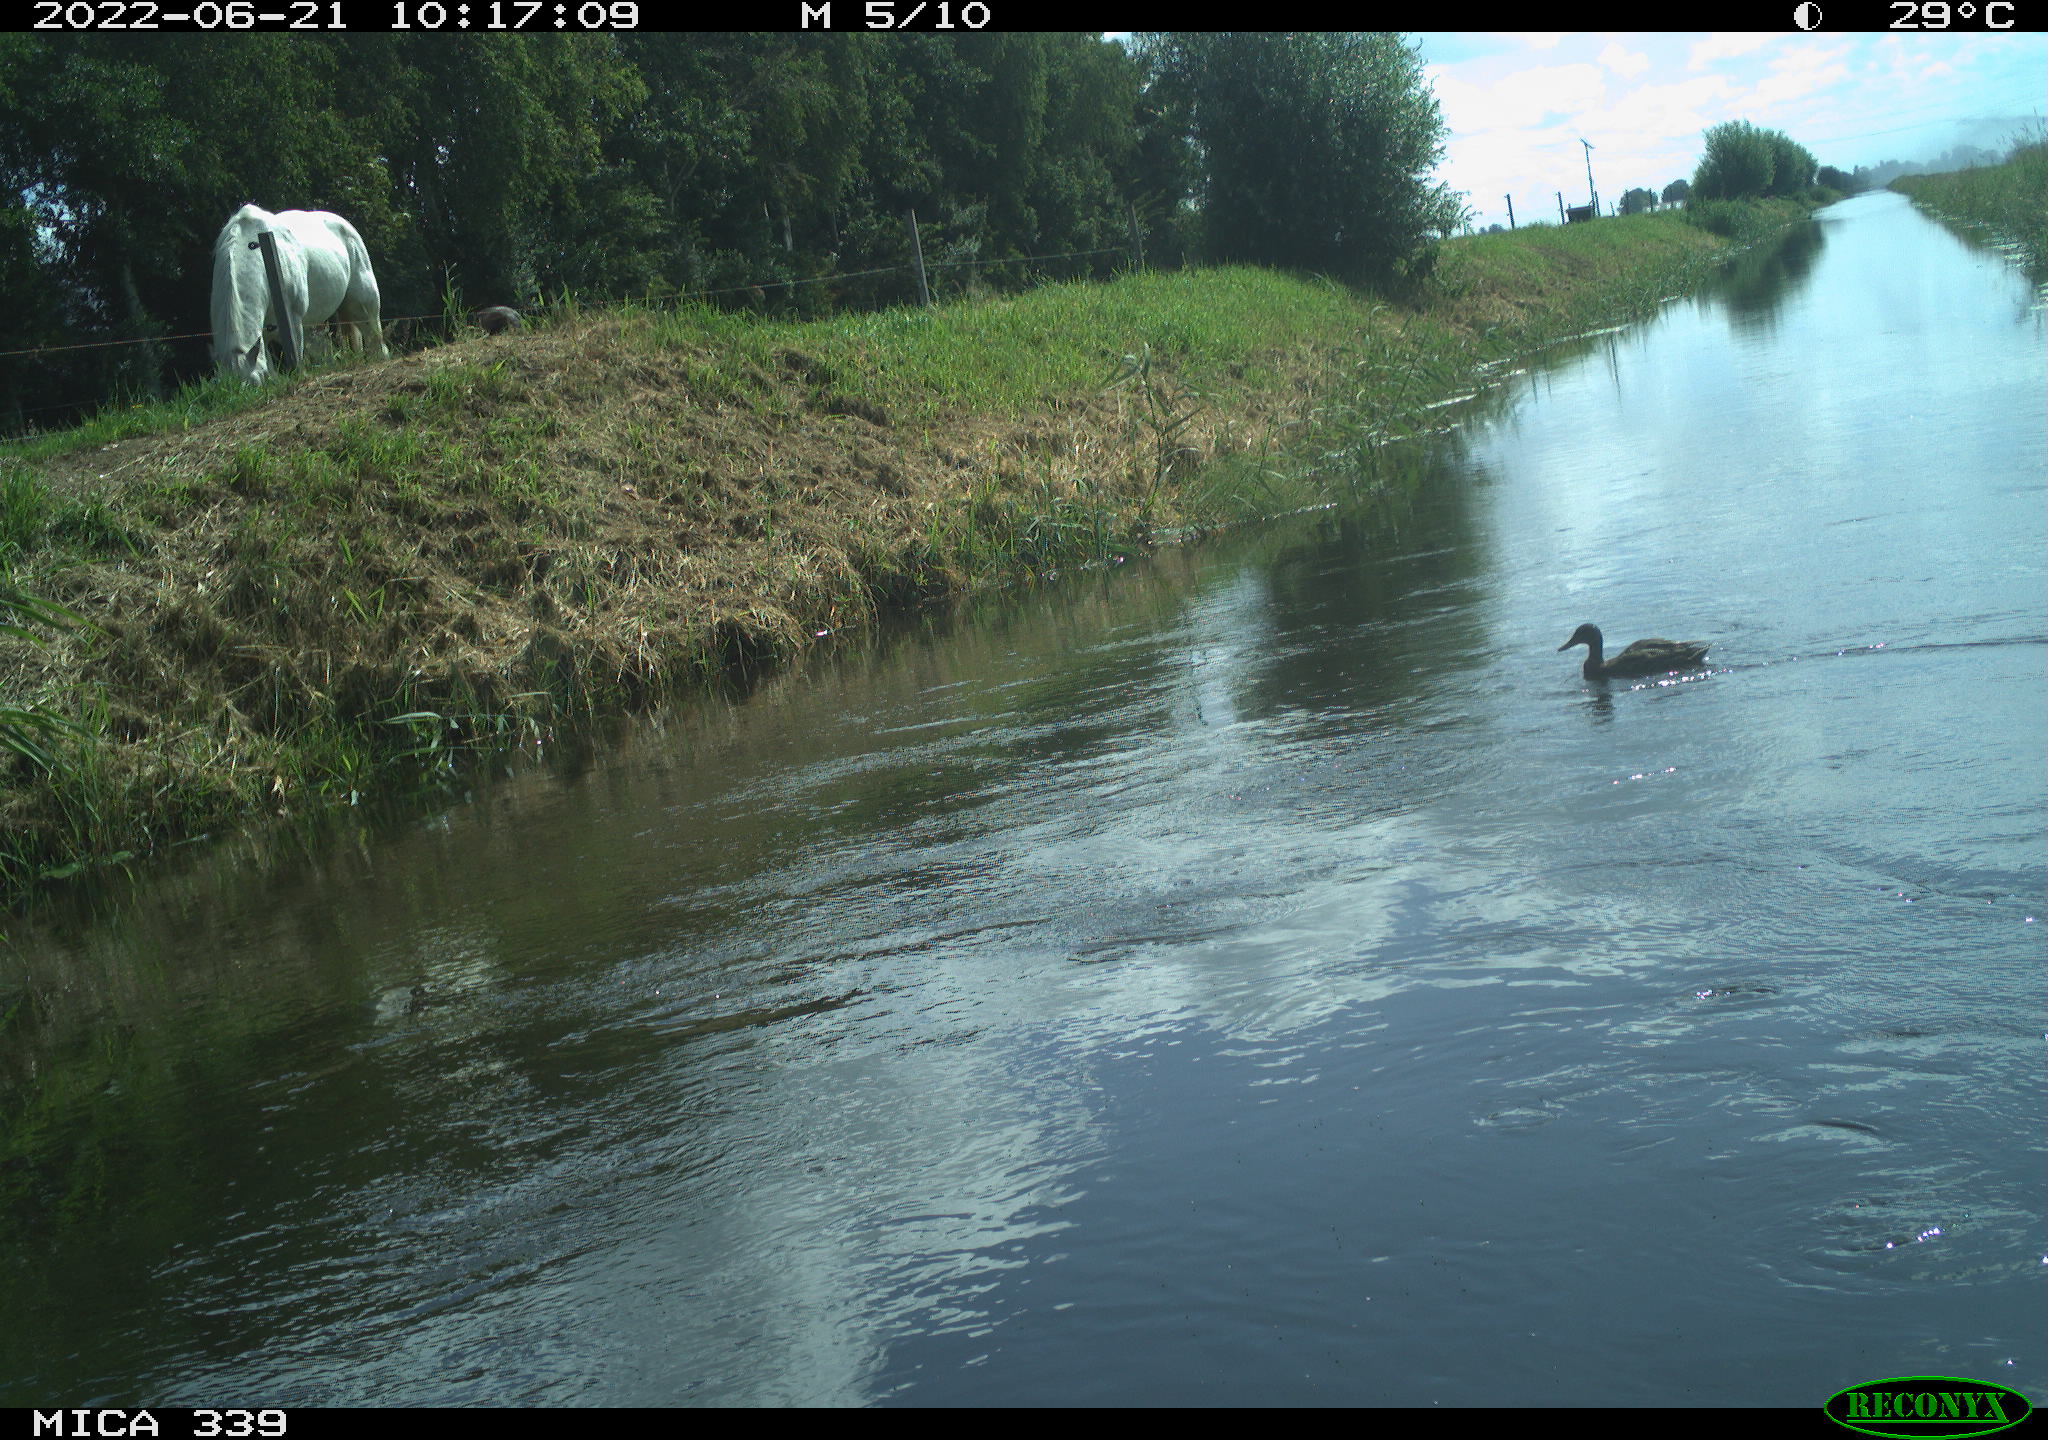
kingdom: Animalia
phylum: Chordata
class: Mammalia
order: Perissodactyla
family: Equidae
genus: Equus
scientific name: Equus caballus
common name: Horse
